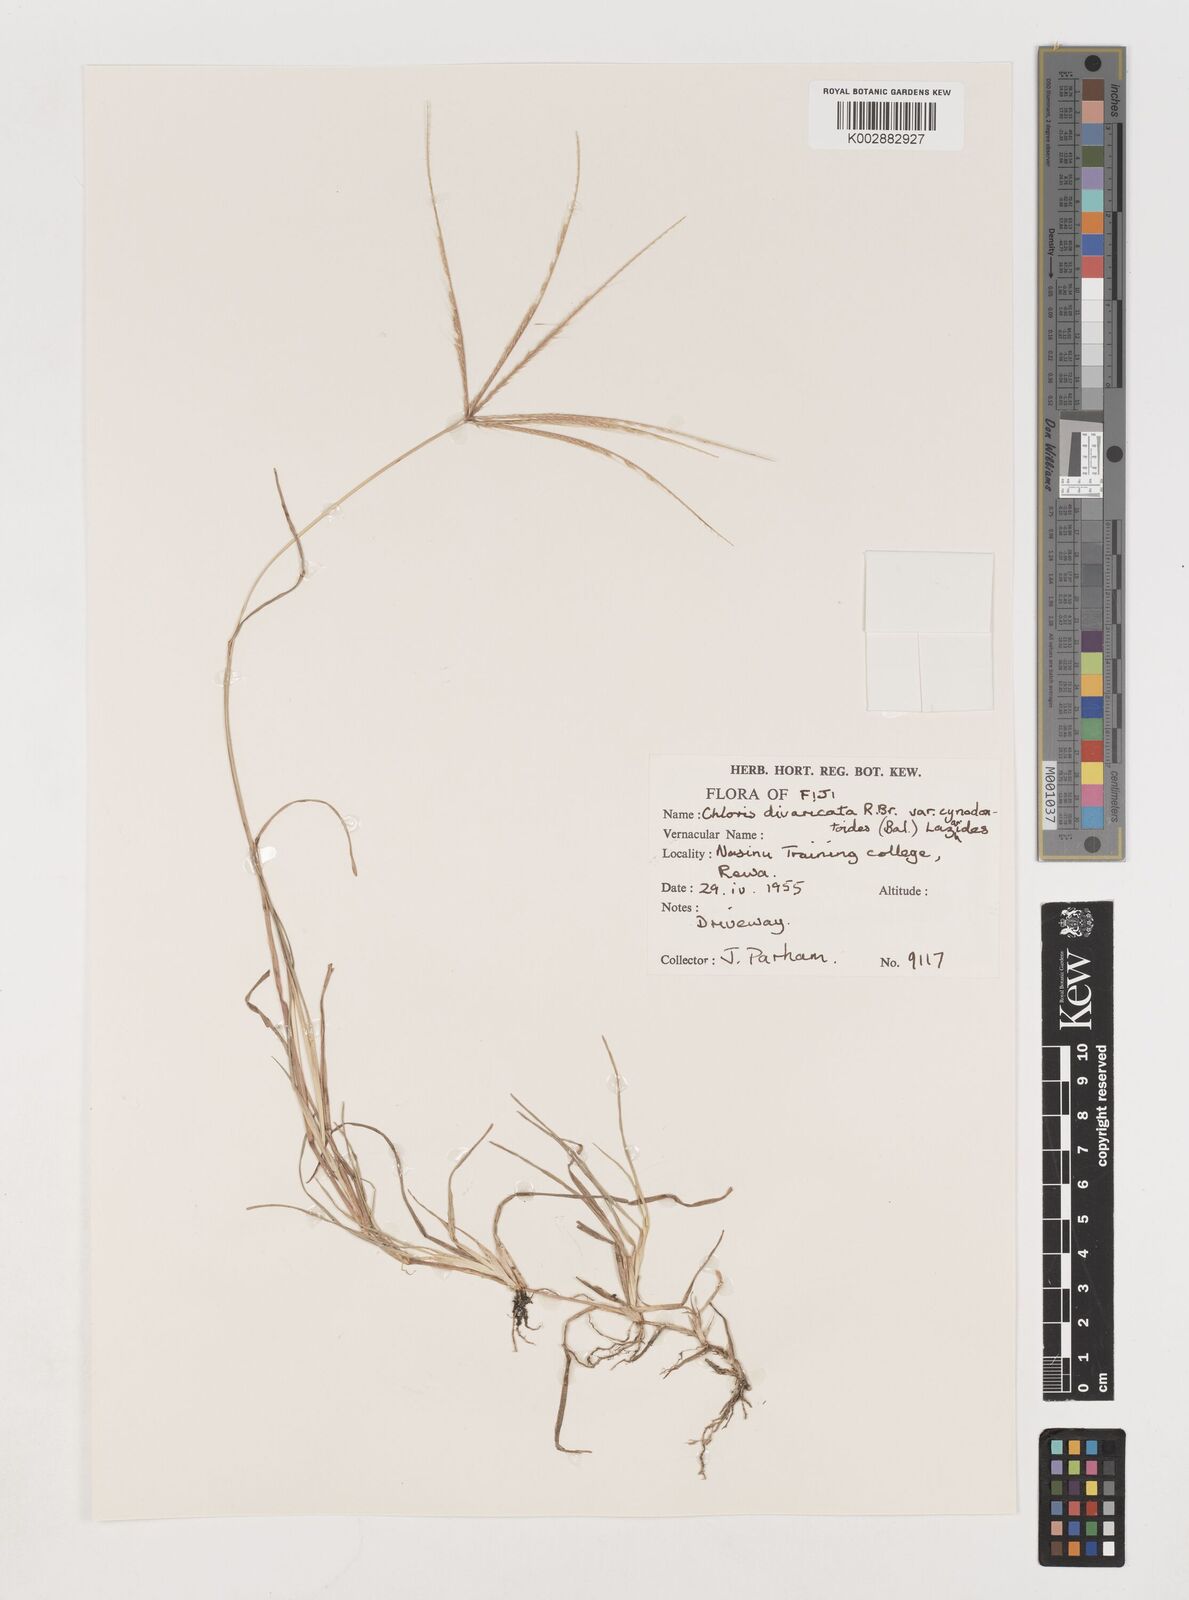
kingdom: Plantae
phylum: Tracheophyta
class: Liliopsida
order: Poales
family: Poaceae
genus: Chloris
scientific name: Chloris divaricata
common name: Spreading windmill grass
